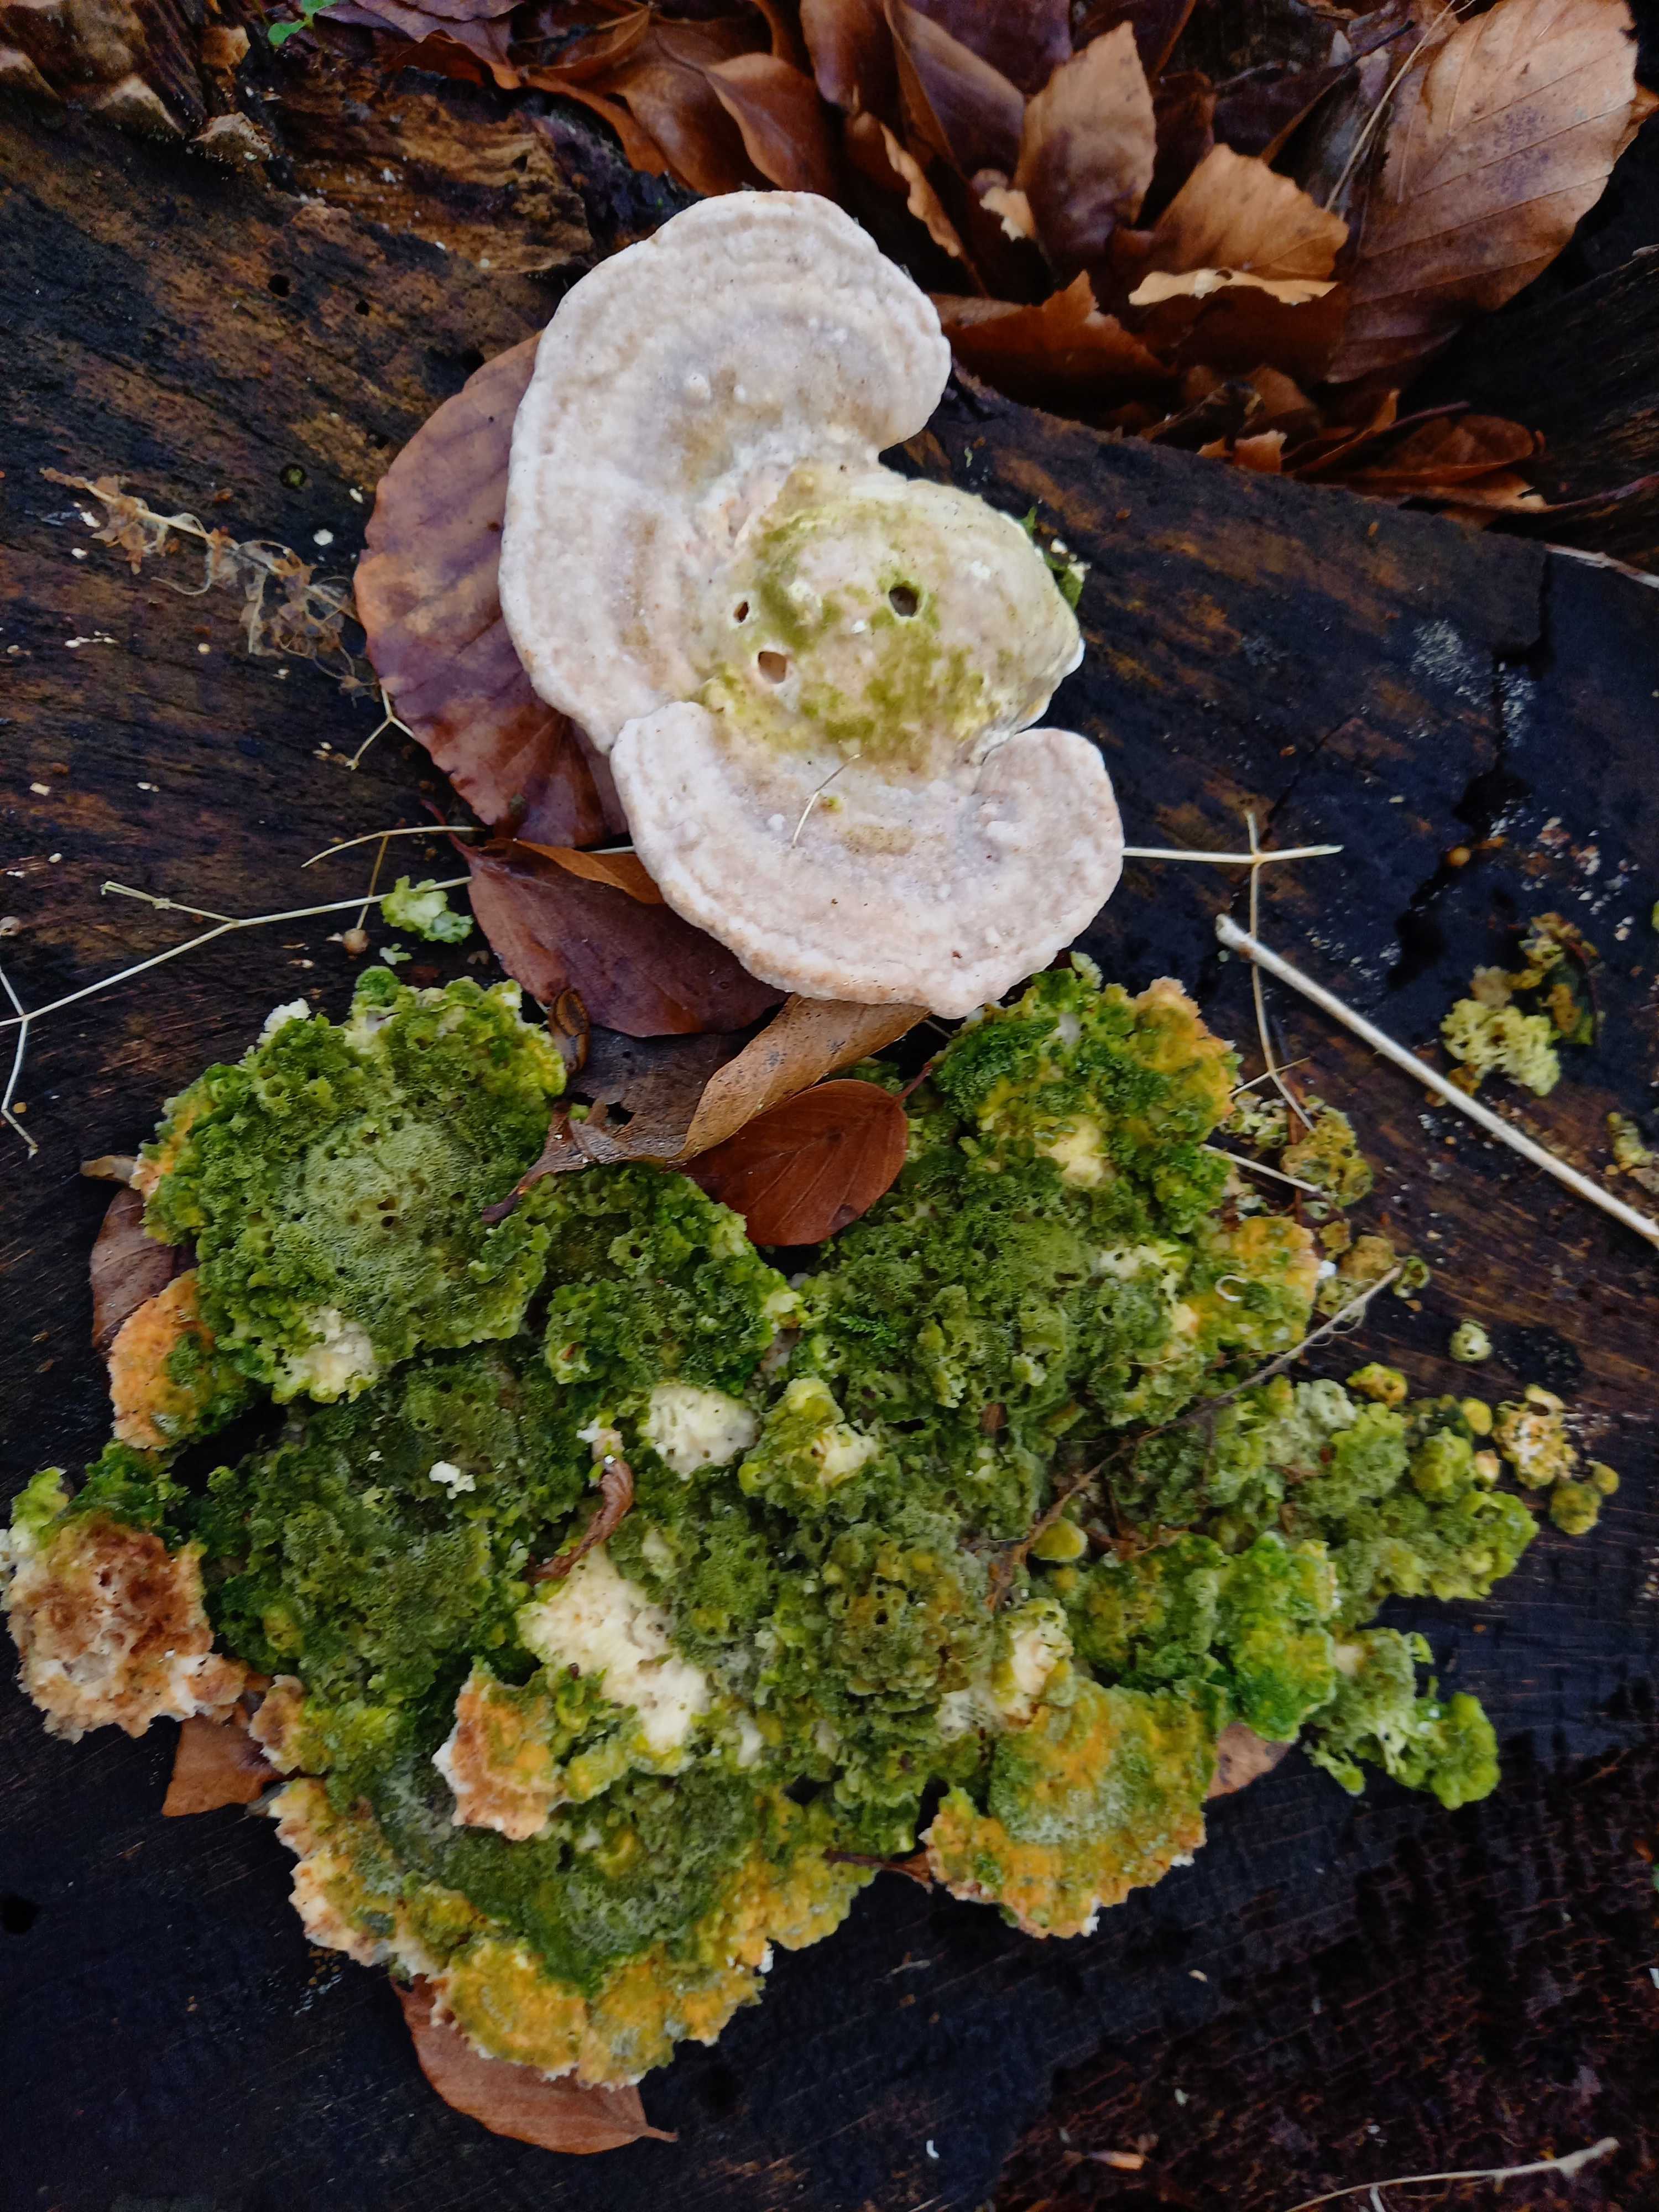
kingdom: Fungi
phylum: Basidiomycota
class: Agaricomycetes
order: Polyporales
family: Polyporaceae
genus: Trametes
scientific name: Trametes gibbosa
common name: puklet læderporesvamp
